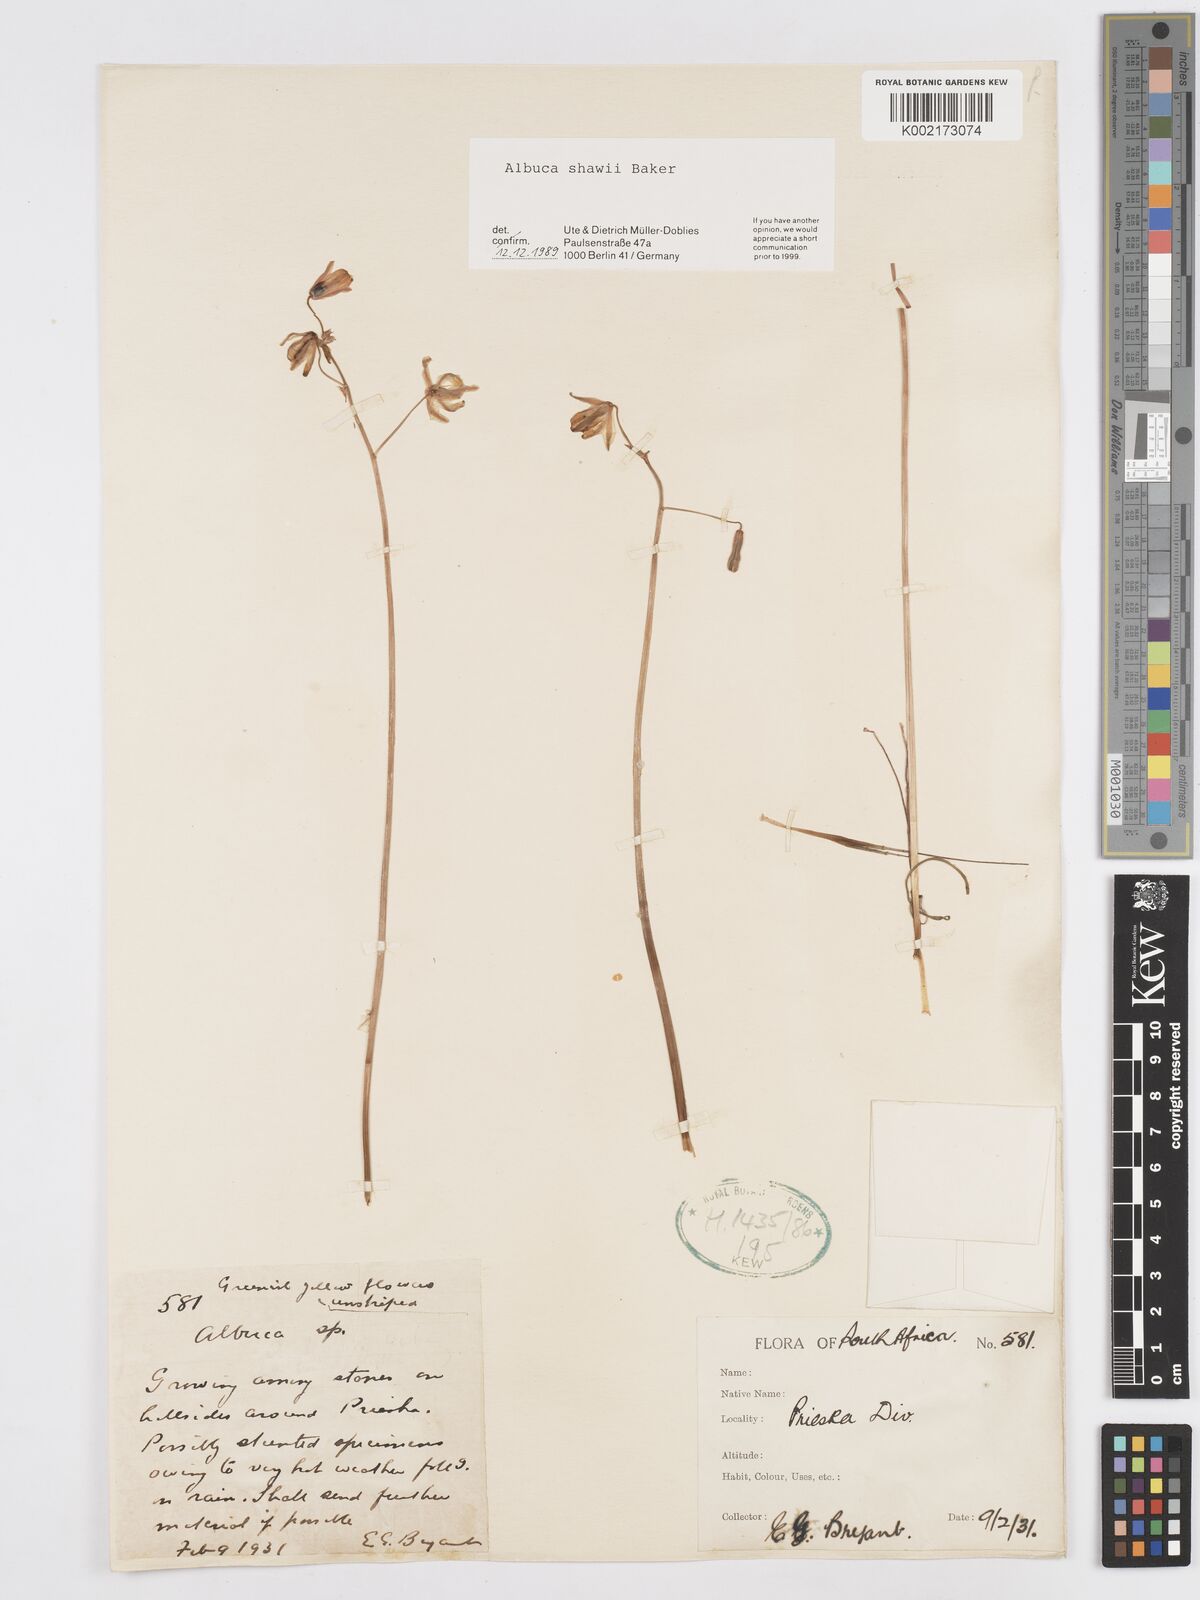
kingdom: Plantae
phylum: Tracheophyta
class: Liliopsida
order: Asparagales
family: Asparagaceae
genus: Albuca
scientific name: Albuca shawii
